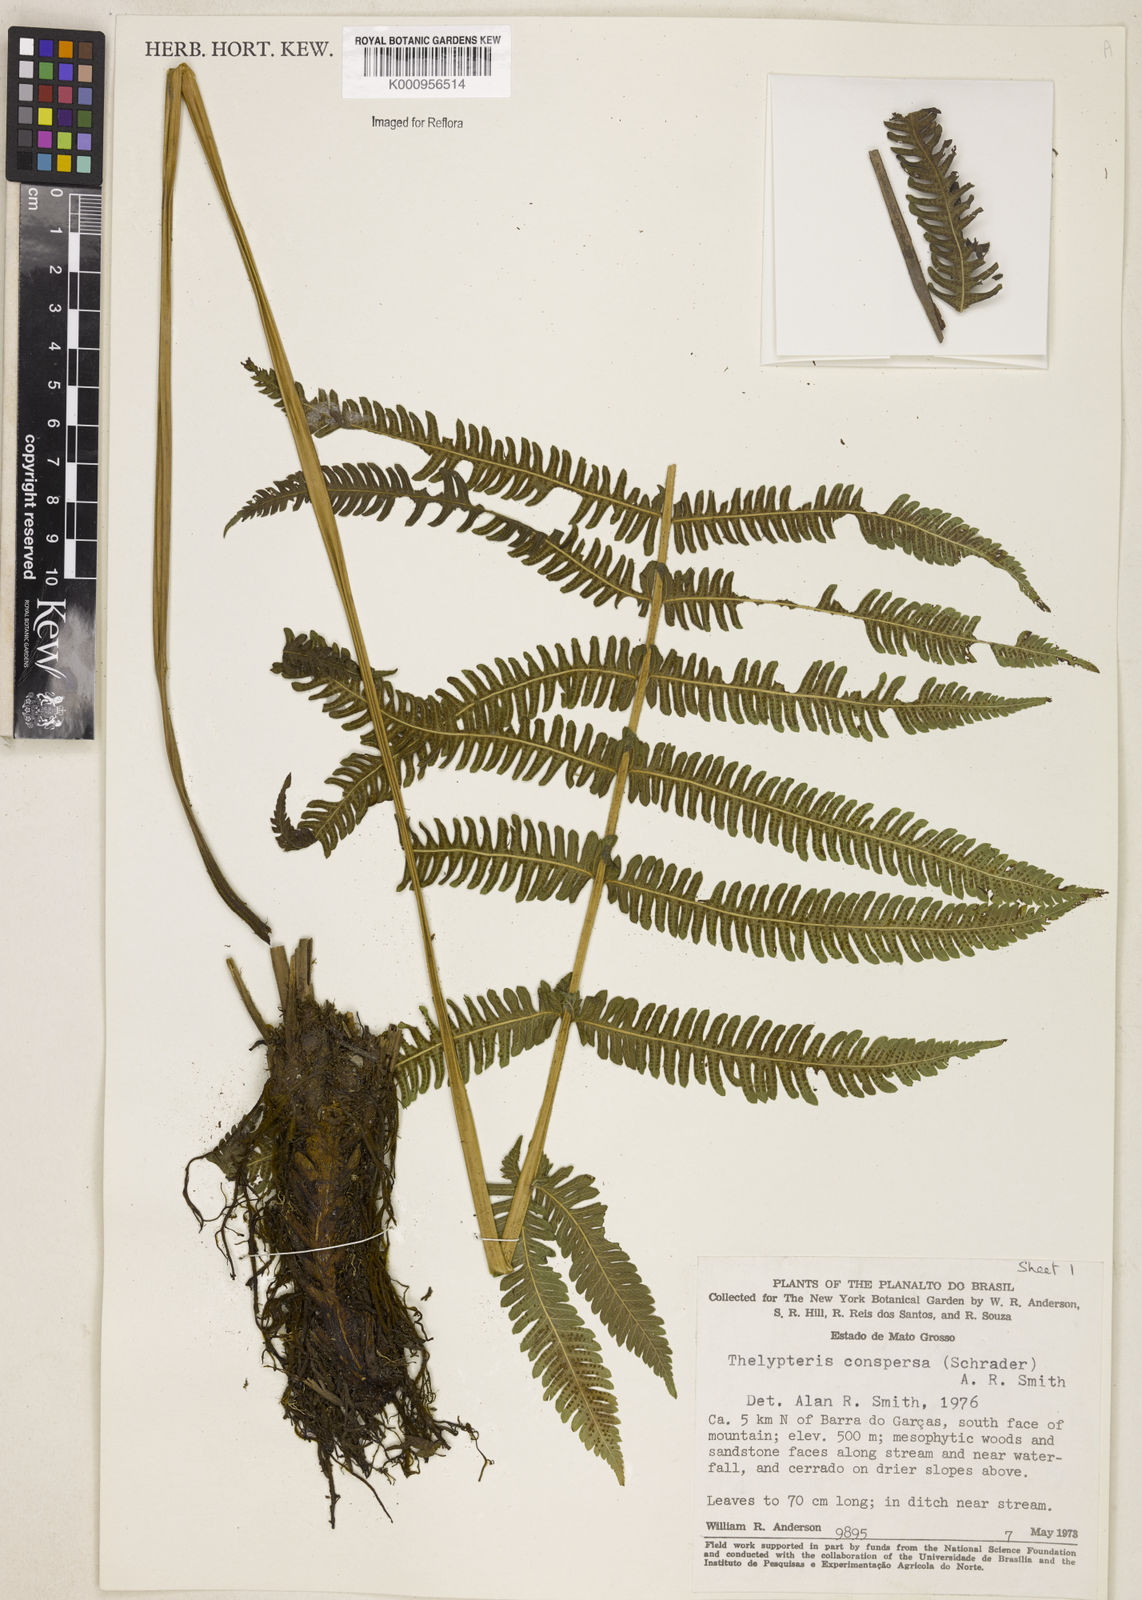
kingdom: Plantae
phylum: Tracheophyta
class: Polypodiopsida
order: Polypodiales
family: Thelypteridaceae
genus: Christella
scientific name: Christella
